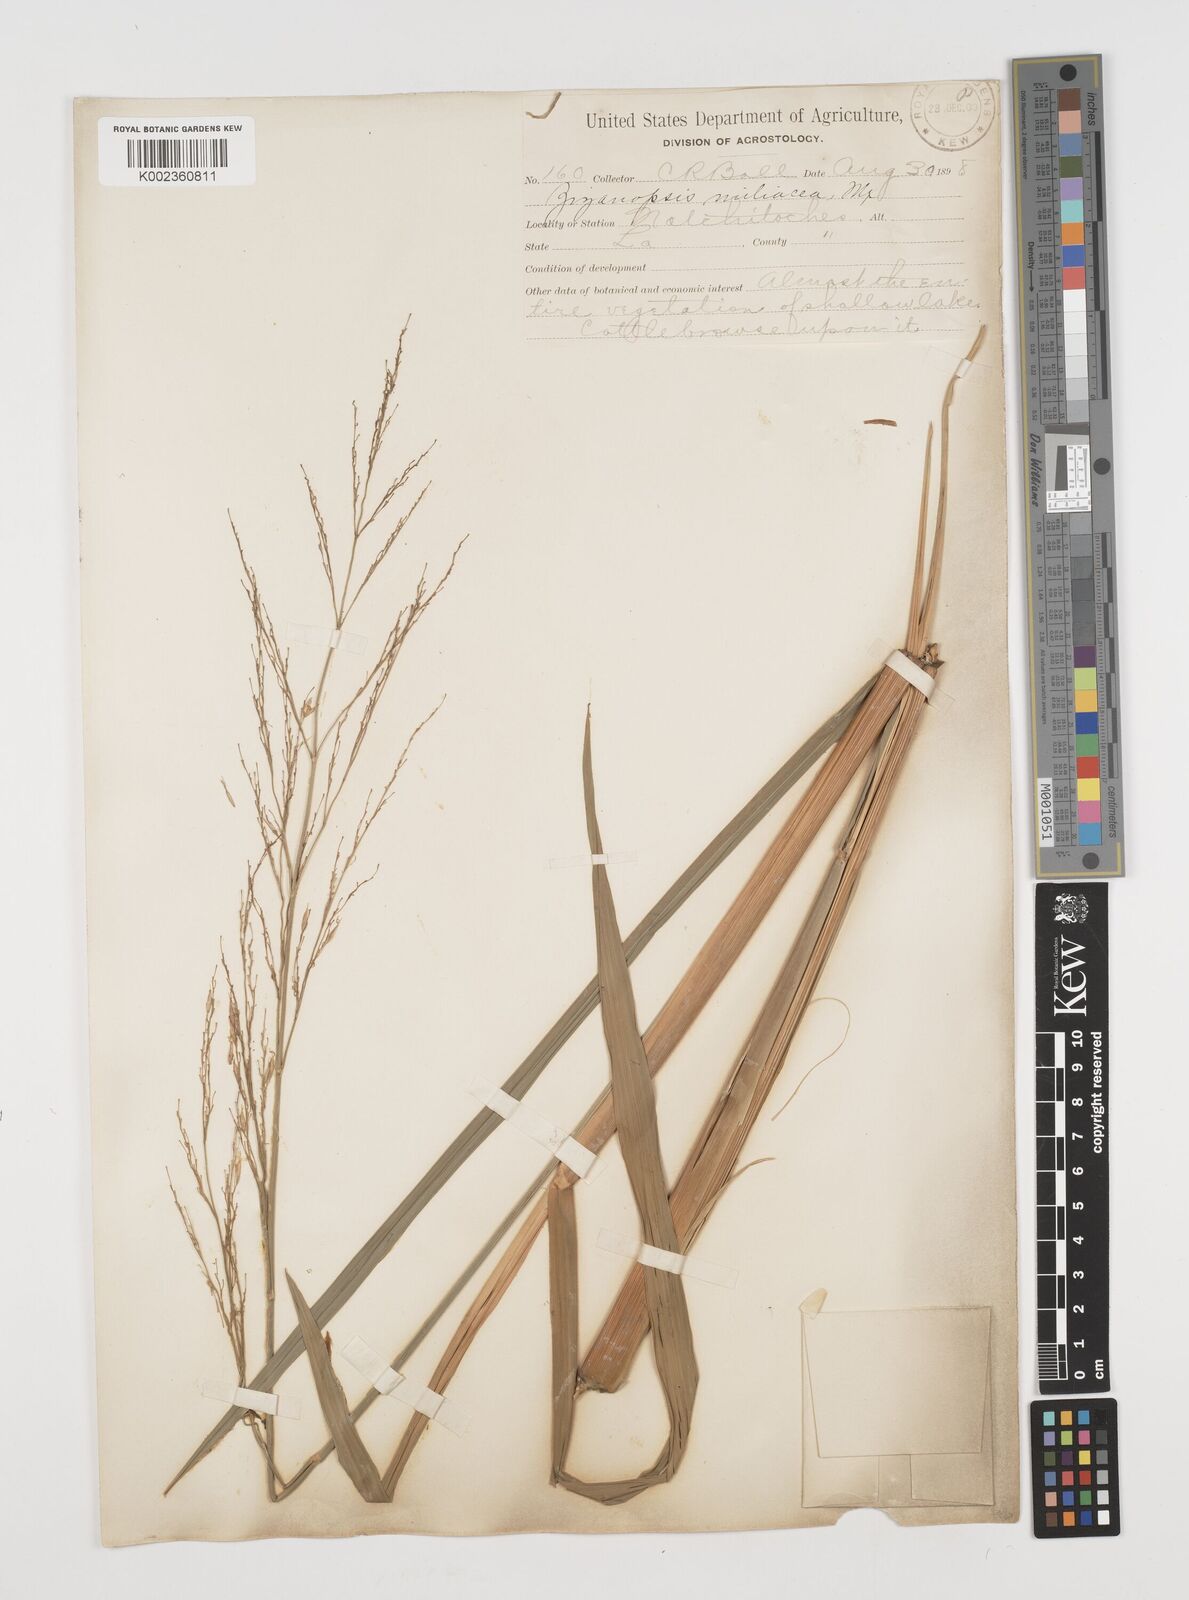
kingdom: Plantae
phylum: Tracheophyta
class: Liliopsida
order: Poales
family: Poaceae
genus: Zizaniopsis
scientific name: Zizaniopsis miliacea
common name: Giant-cutgrass
